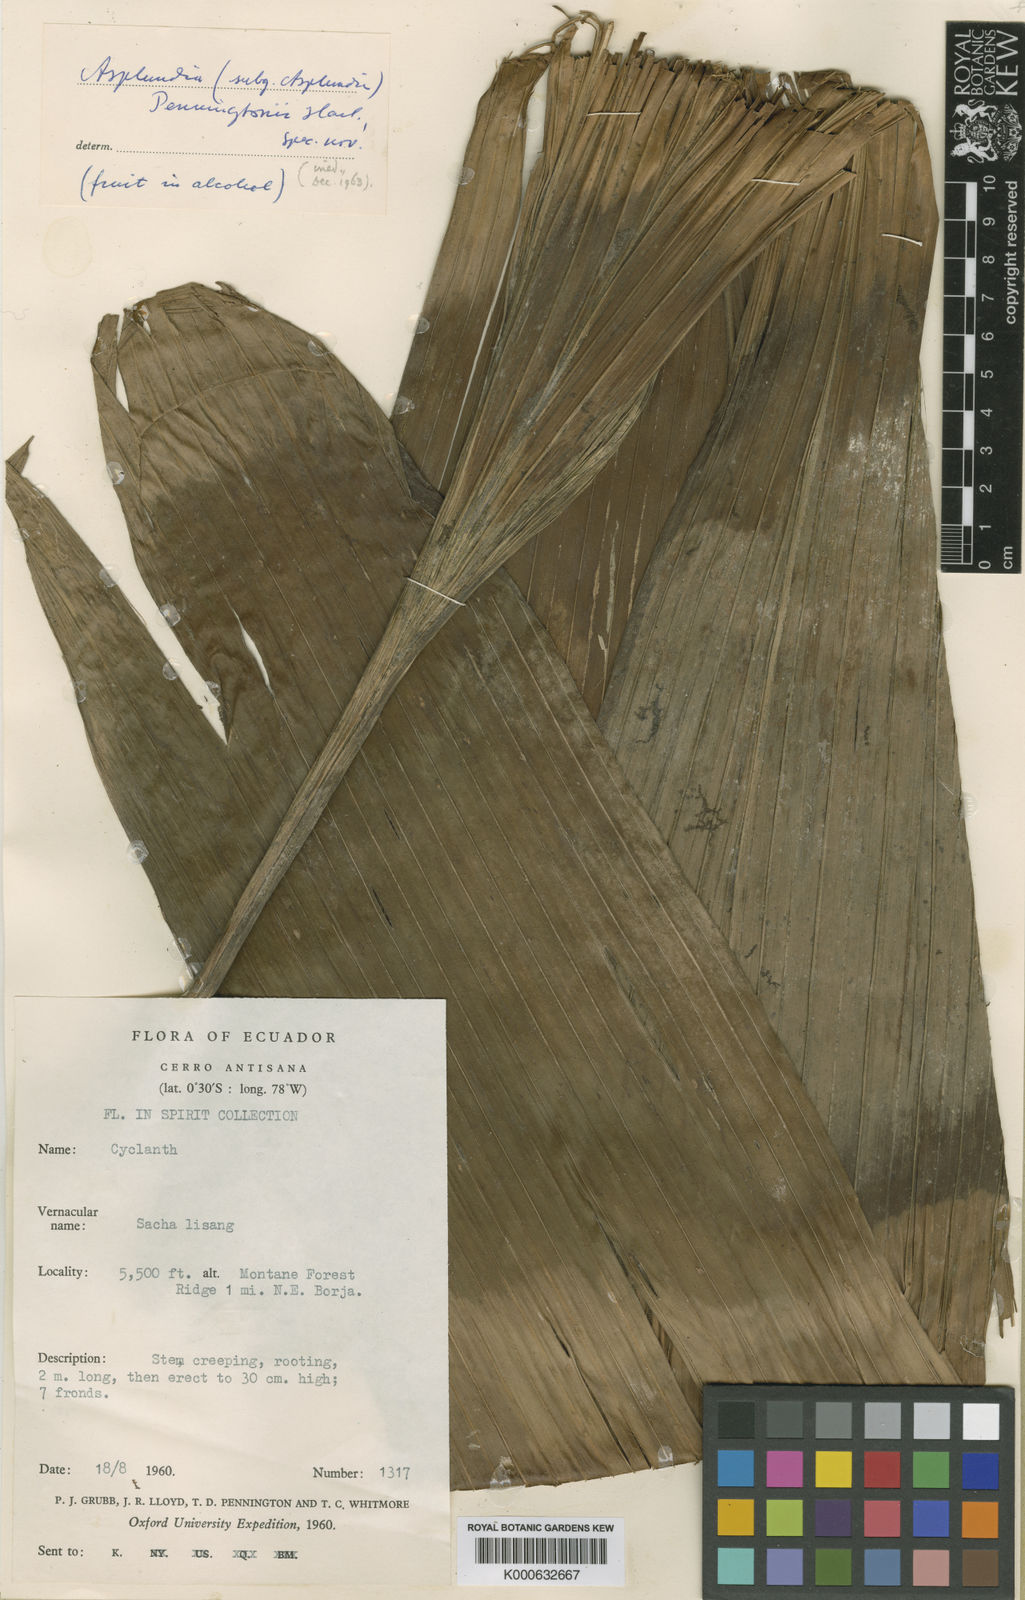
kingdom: Plantae
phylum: Tracheophyta
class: Liliopsida
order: Pandanales
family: Cyclanthaceae
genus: Asplundia
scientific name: Asplundia
